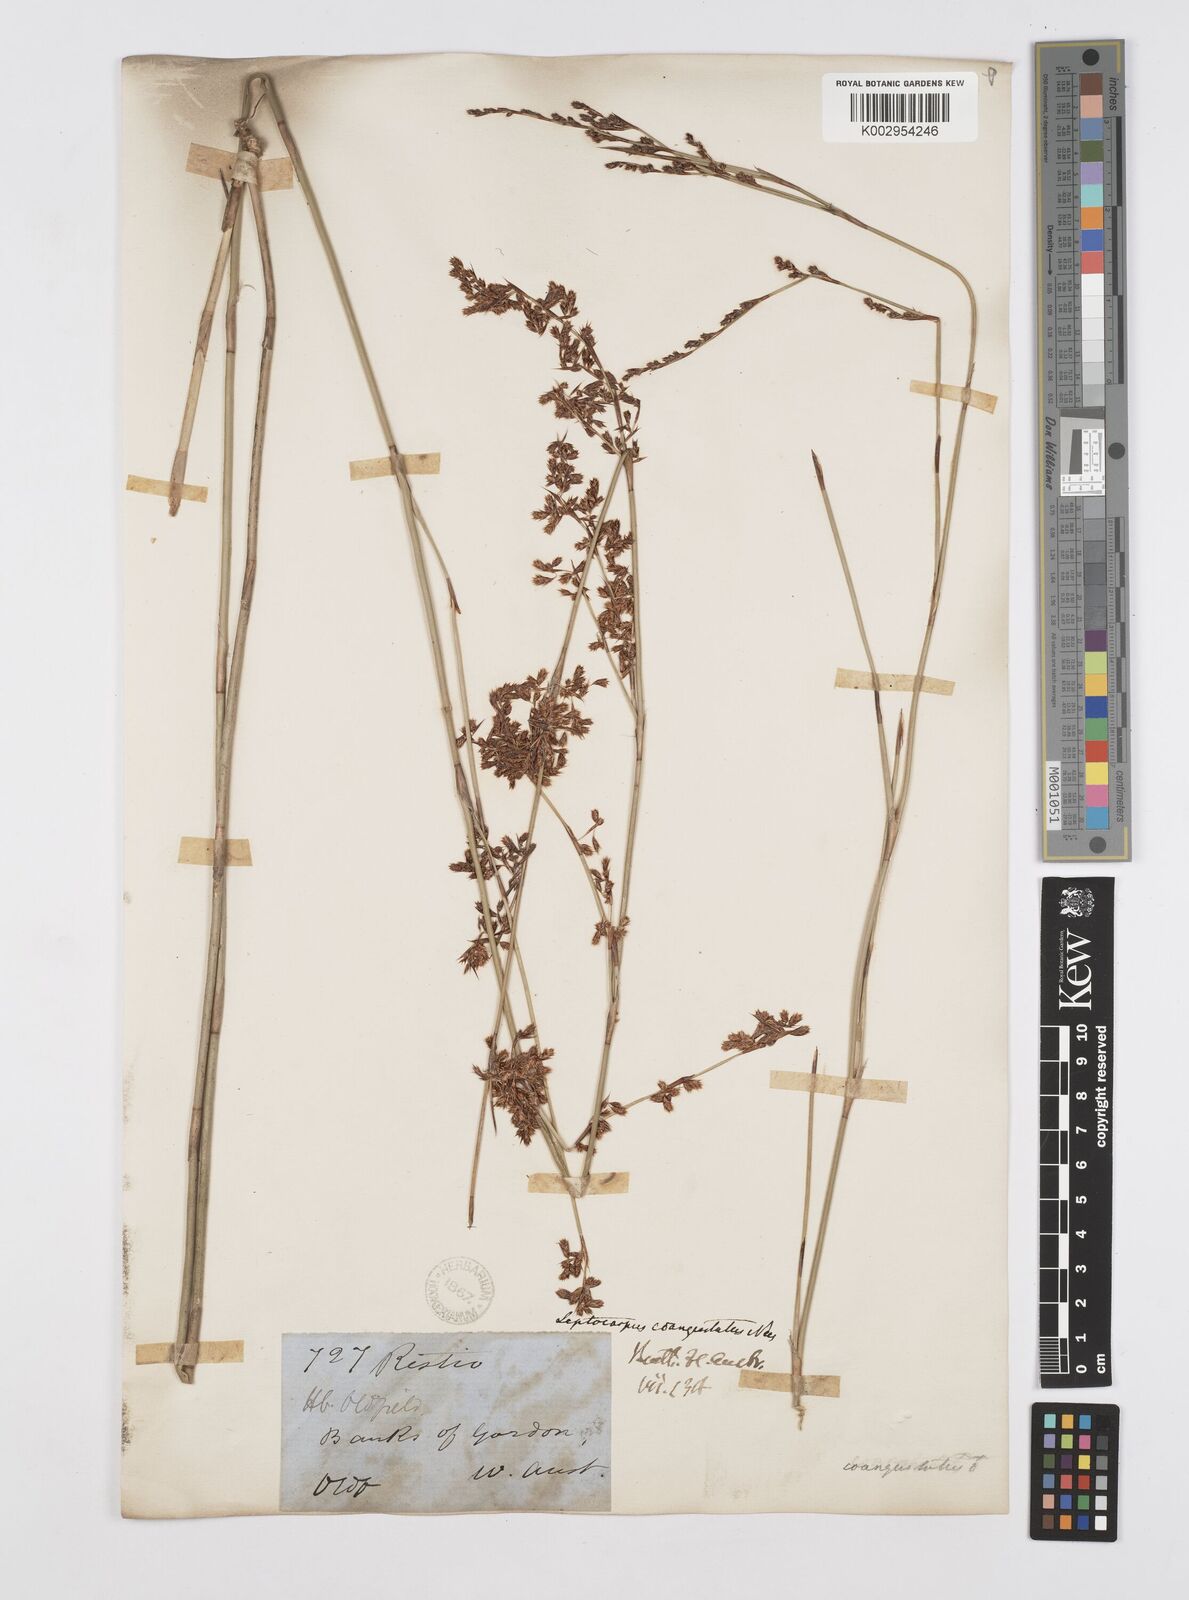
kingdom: Plantae
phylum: Tracheophyta
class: Liliopsida
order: Poales
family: Restionaceae
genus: Leptocarpus
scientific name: Leptocarpus coangustatus
